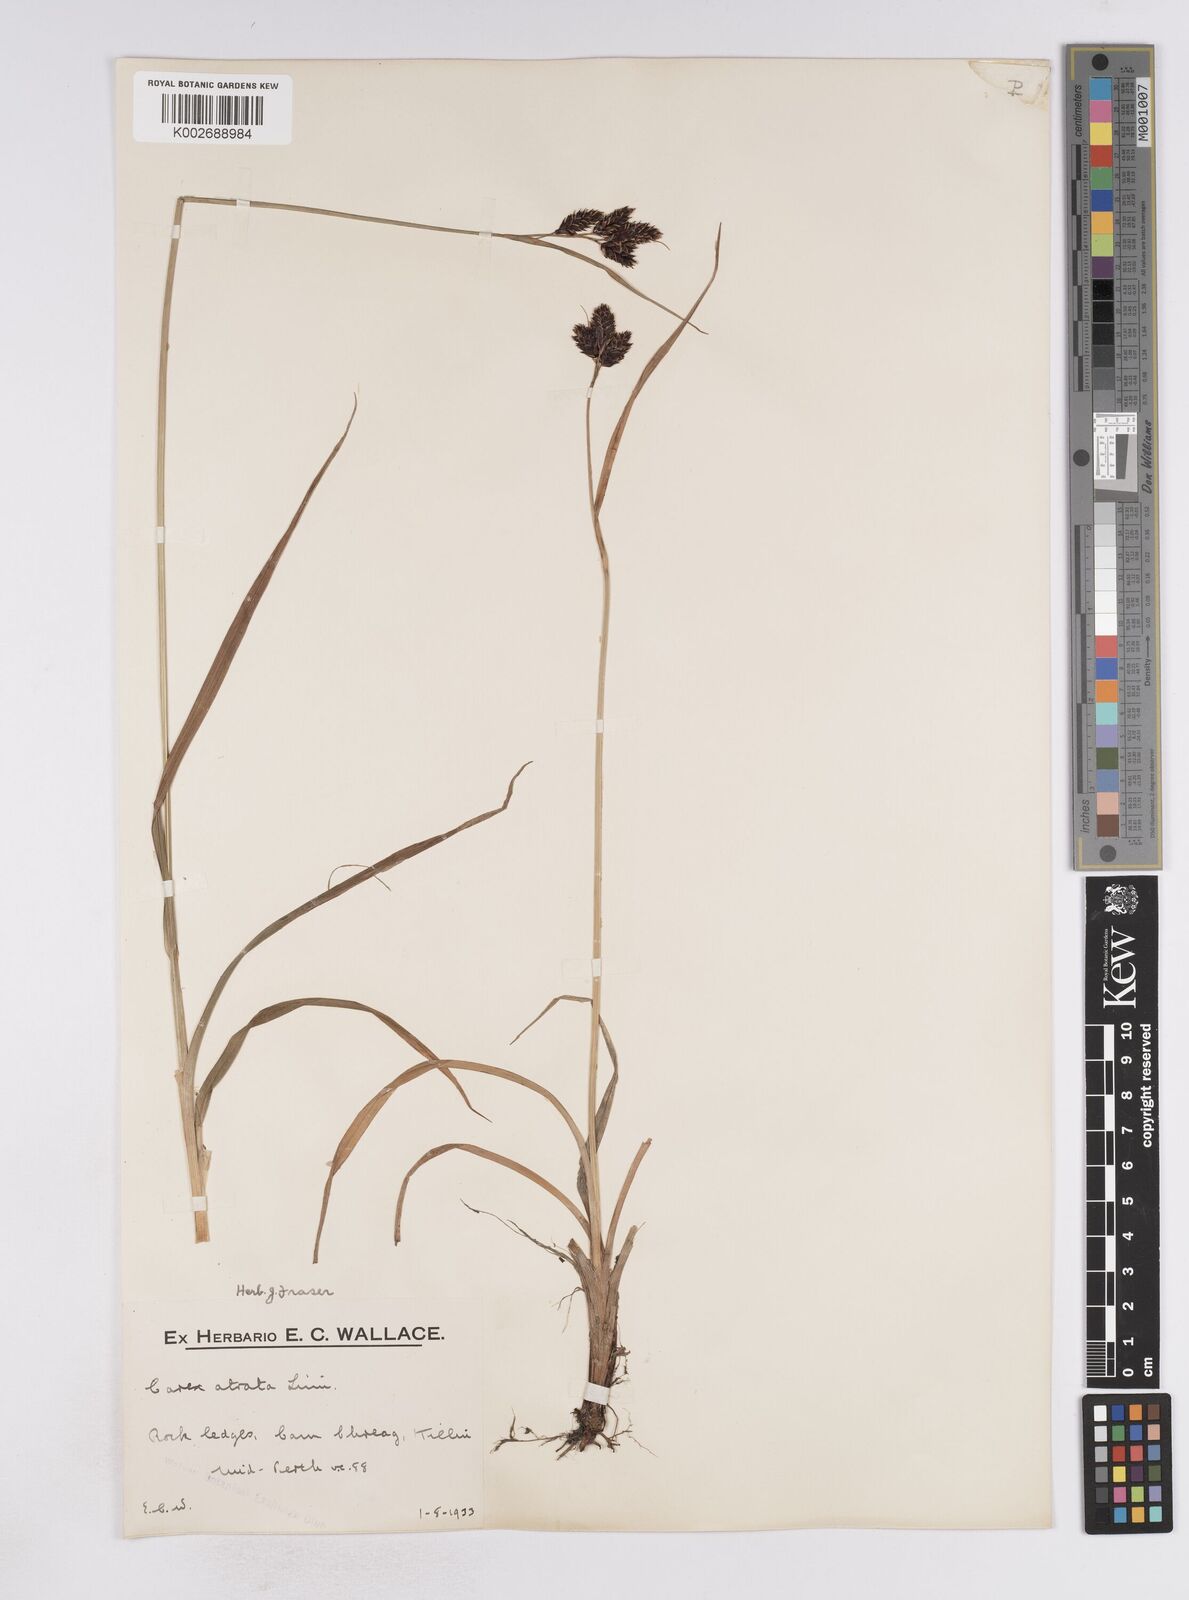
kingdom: Plantae
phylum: Tracheophyta
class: Liliopsida
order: Poales
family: Cyperaceae
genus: Carex
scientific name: Carex atrata
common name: Black alpine sedge
